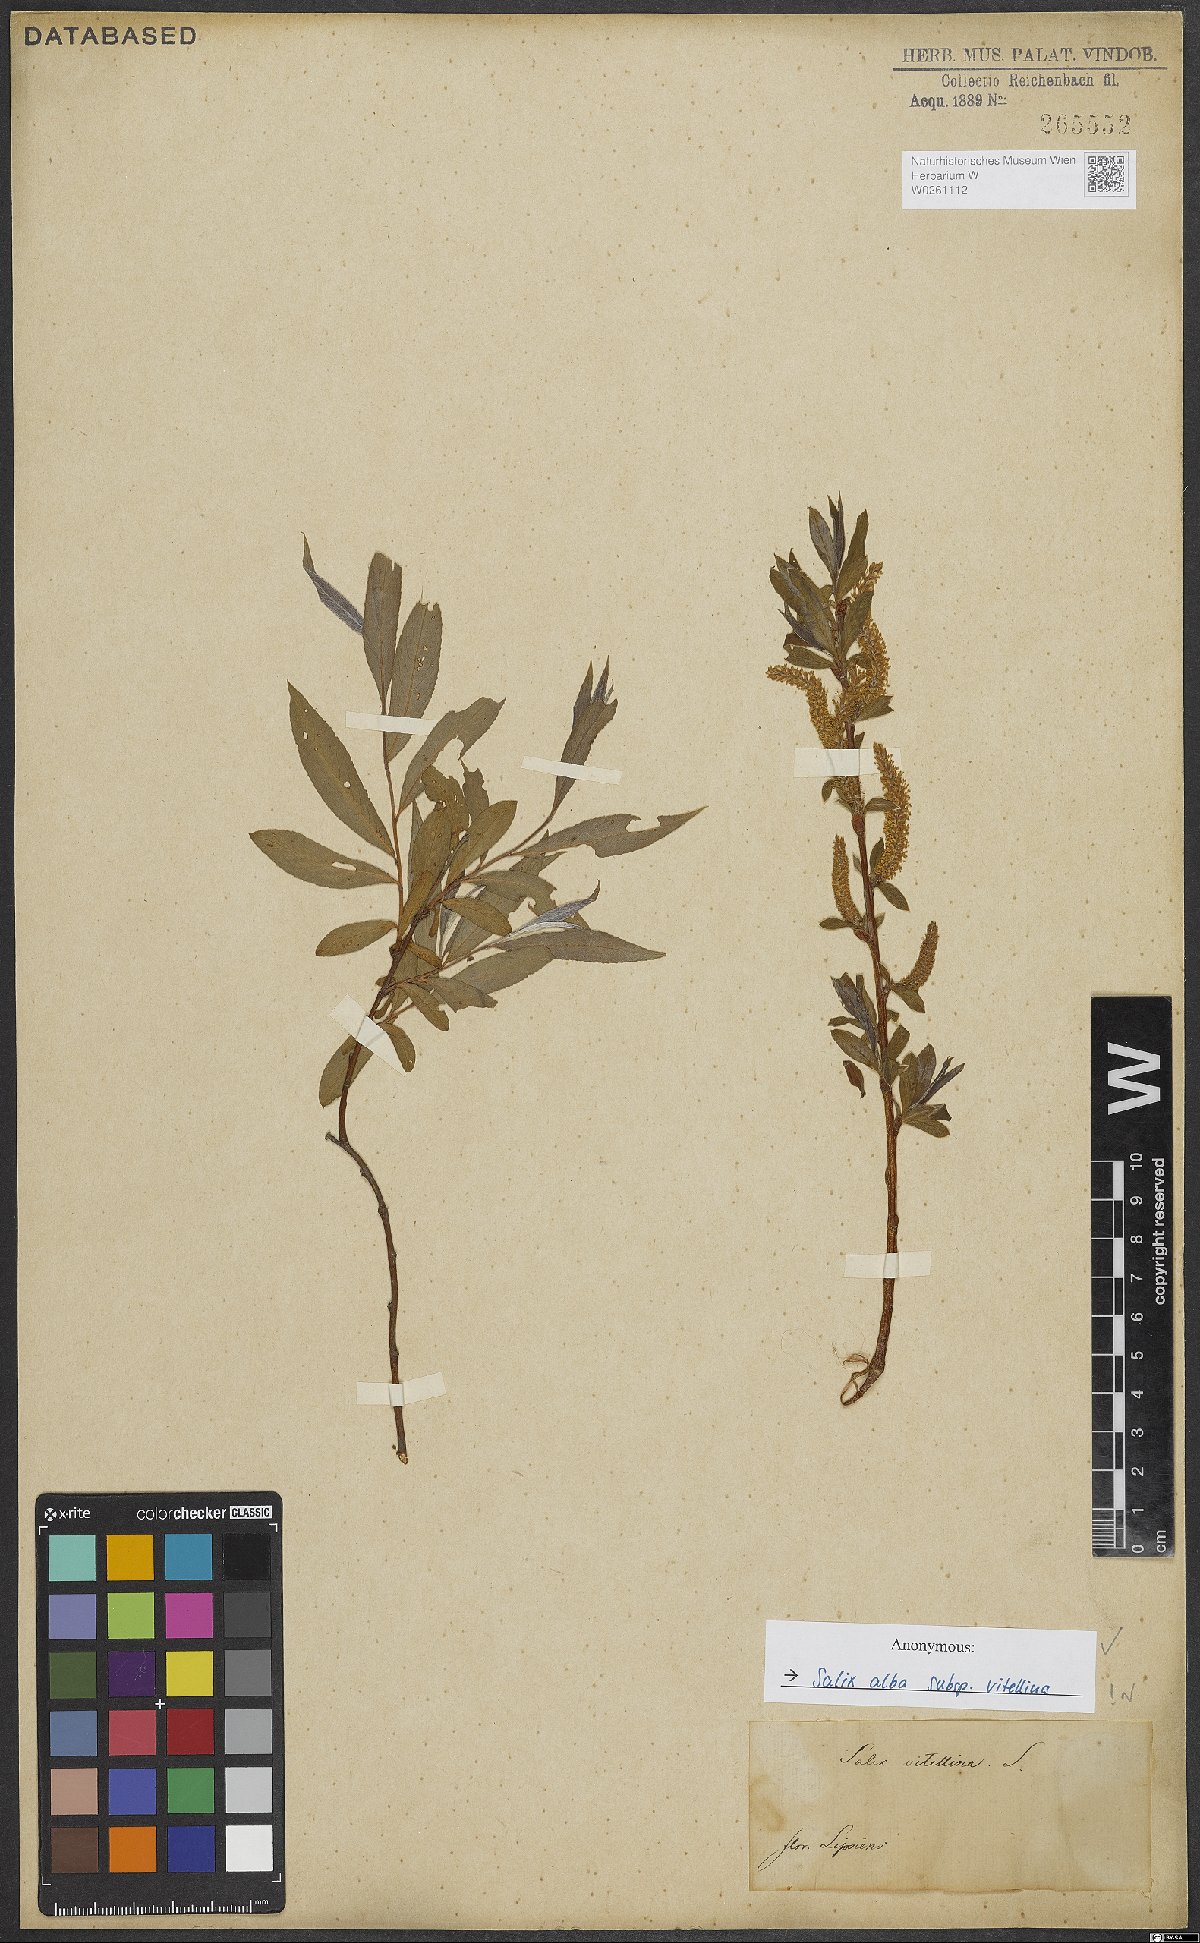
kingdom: Plantae
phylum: Tracheophyta
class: Magnoliopsida
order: Malpighiales
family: Salicaceae
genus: Salix
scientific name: Salix alba
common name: White willow
